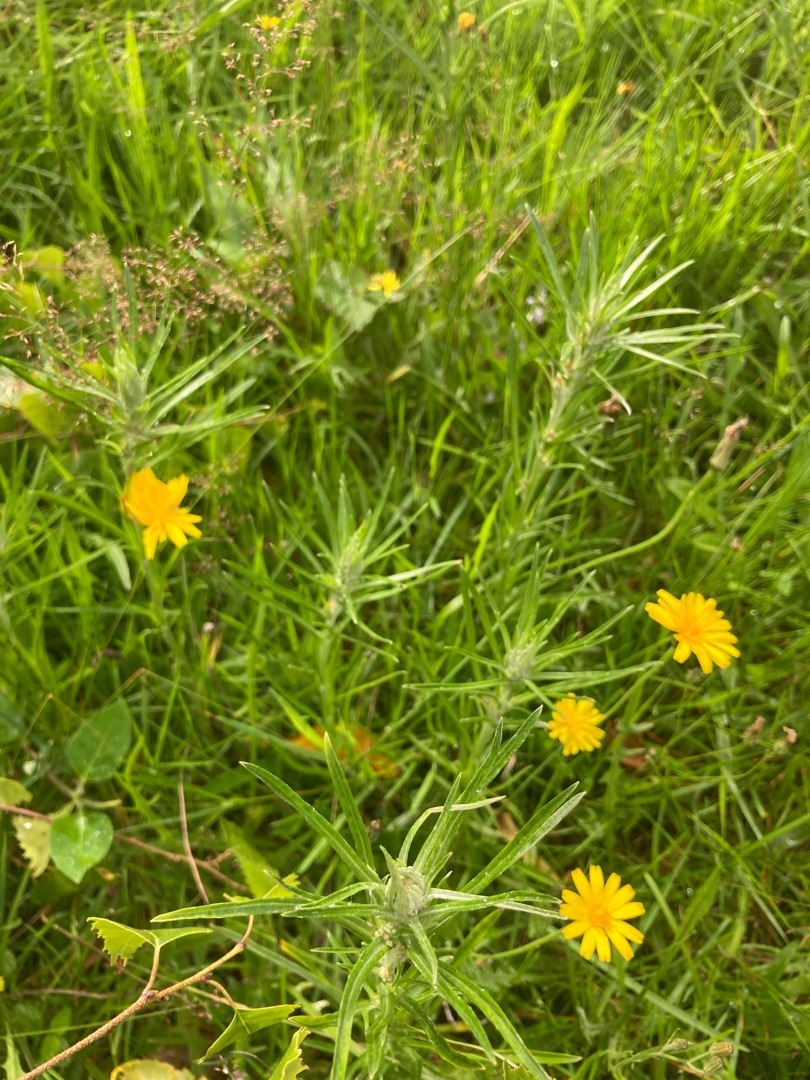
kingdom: Plantae
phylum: Tracheophyta
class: Magnoliopsida
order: Asterales
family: Asteraceae
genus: Omalotheca
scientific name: Omalotheca sylvatica
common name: Rank evighedsblomst
